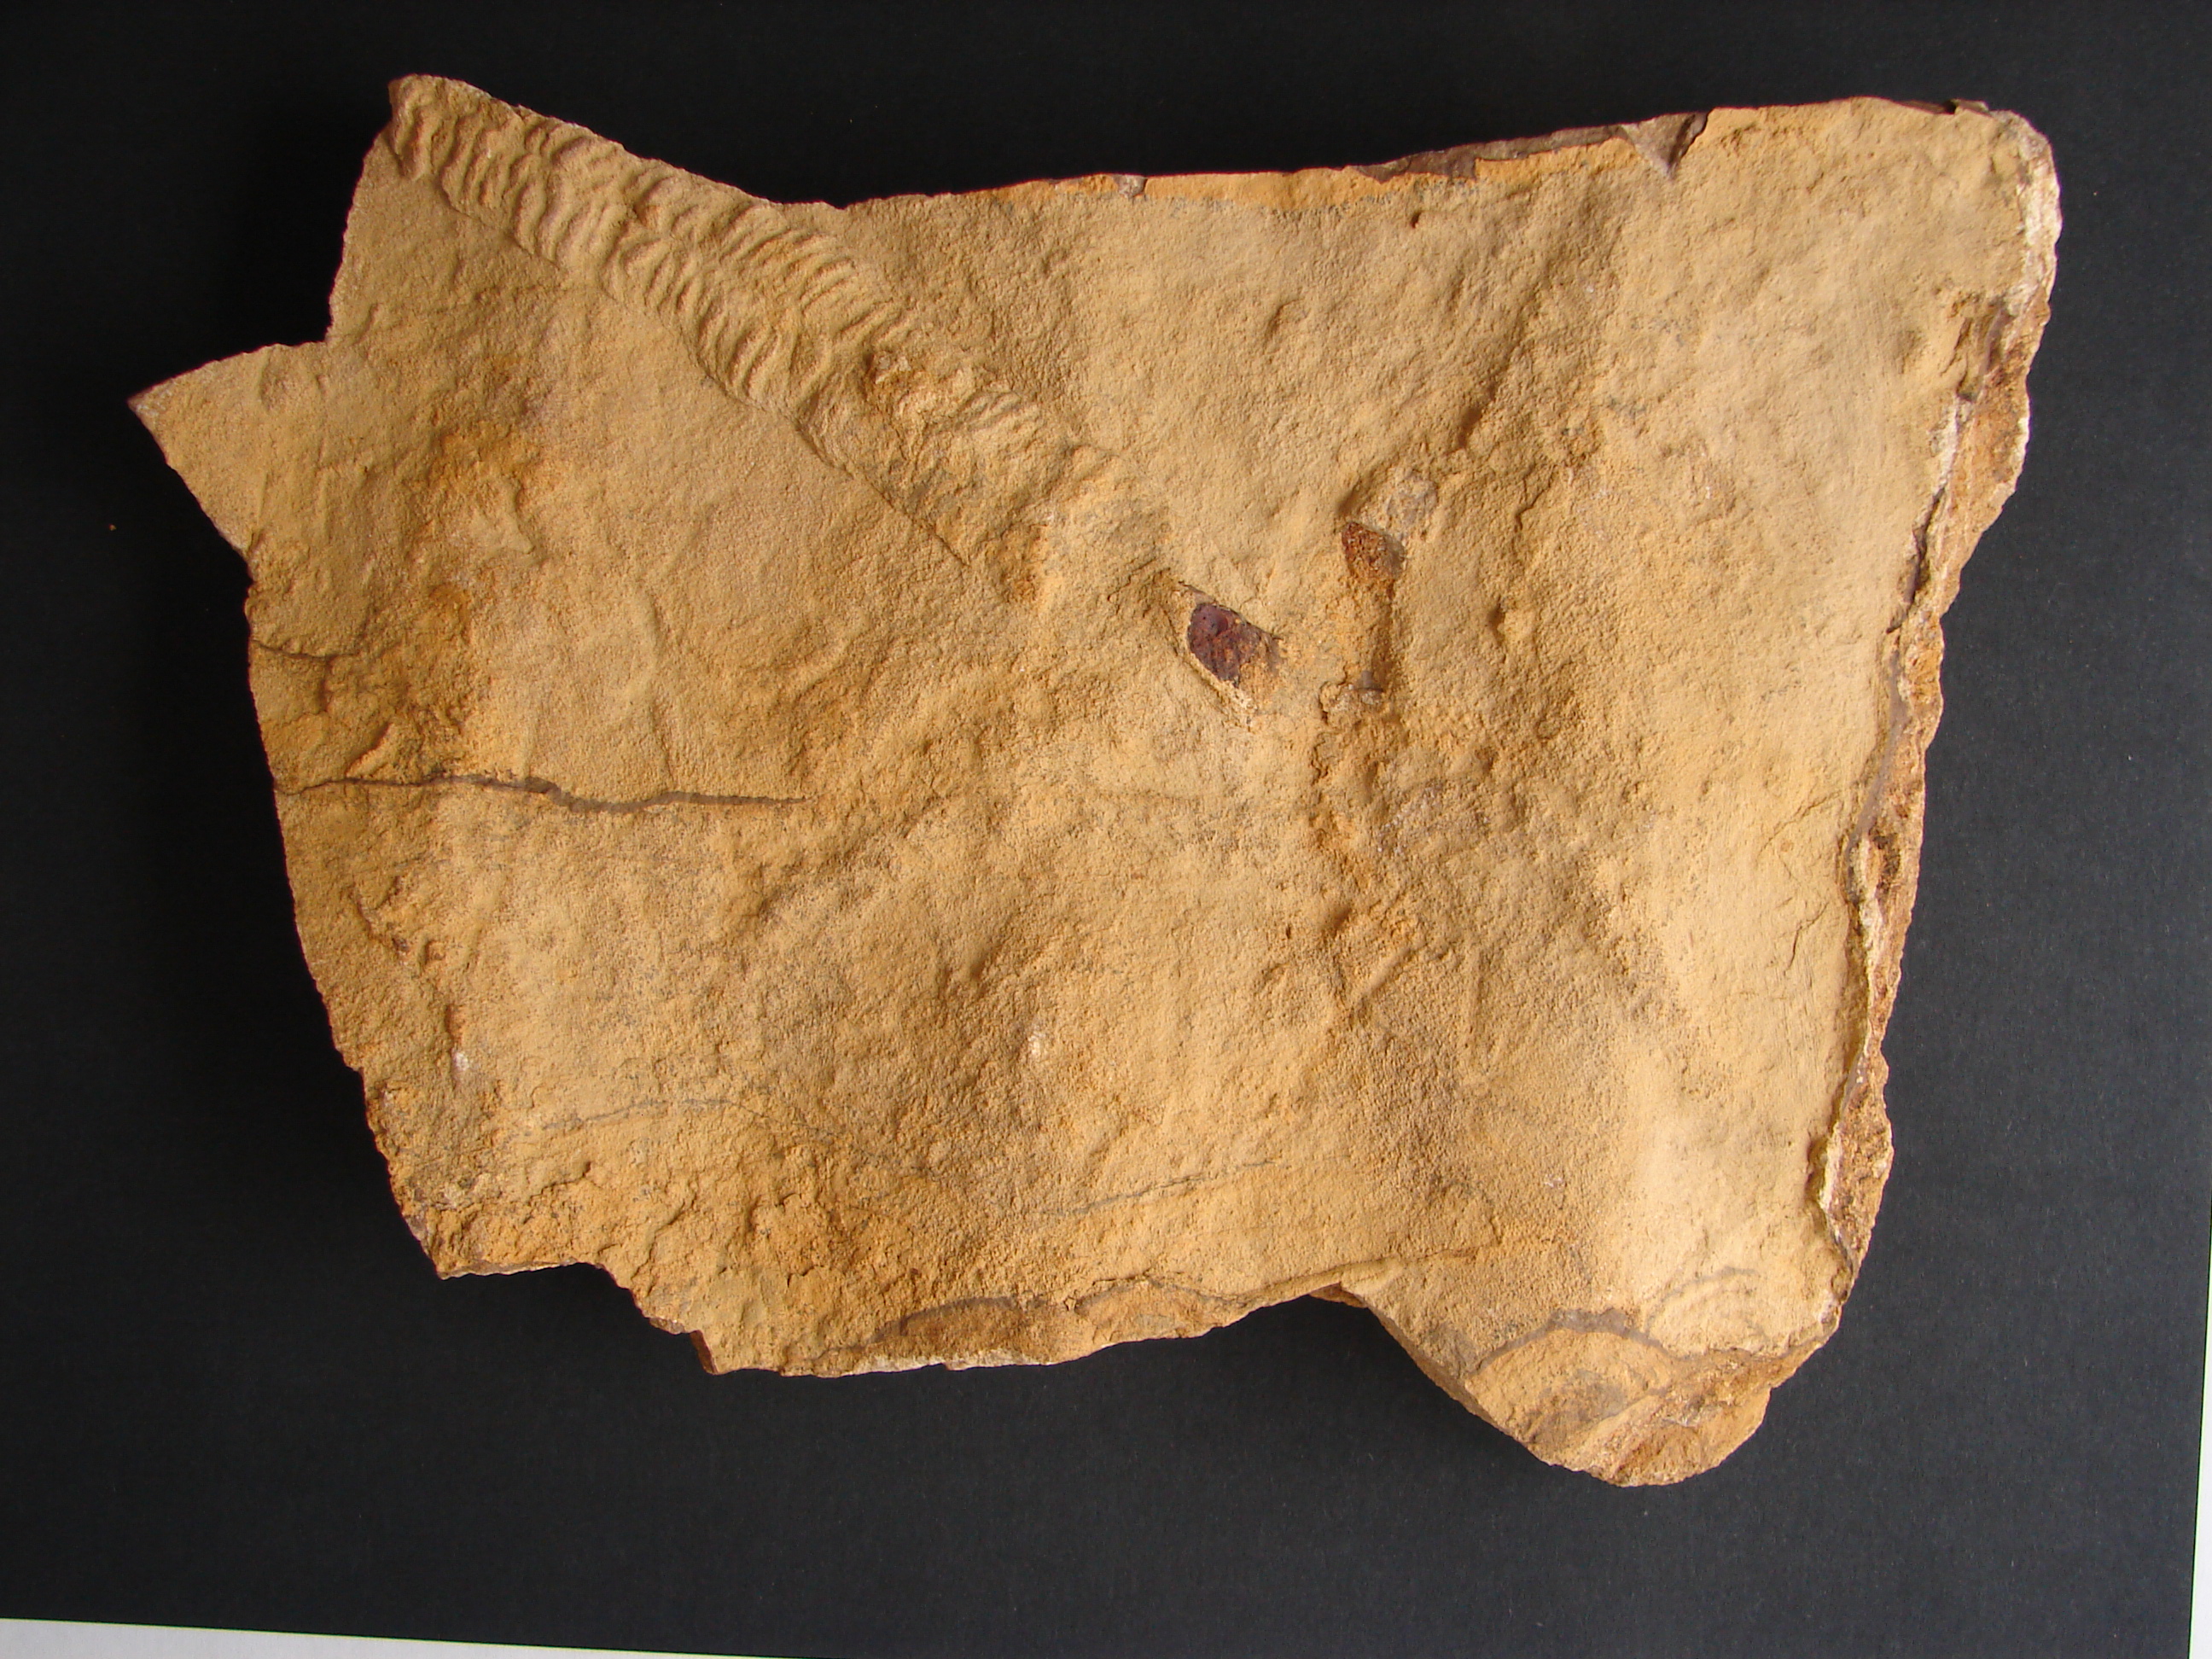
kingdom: Animalia
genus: Protovirgularia
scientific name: Protovirgularia
